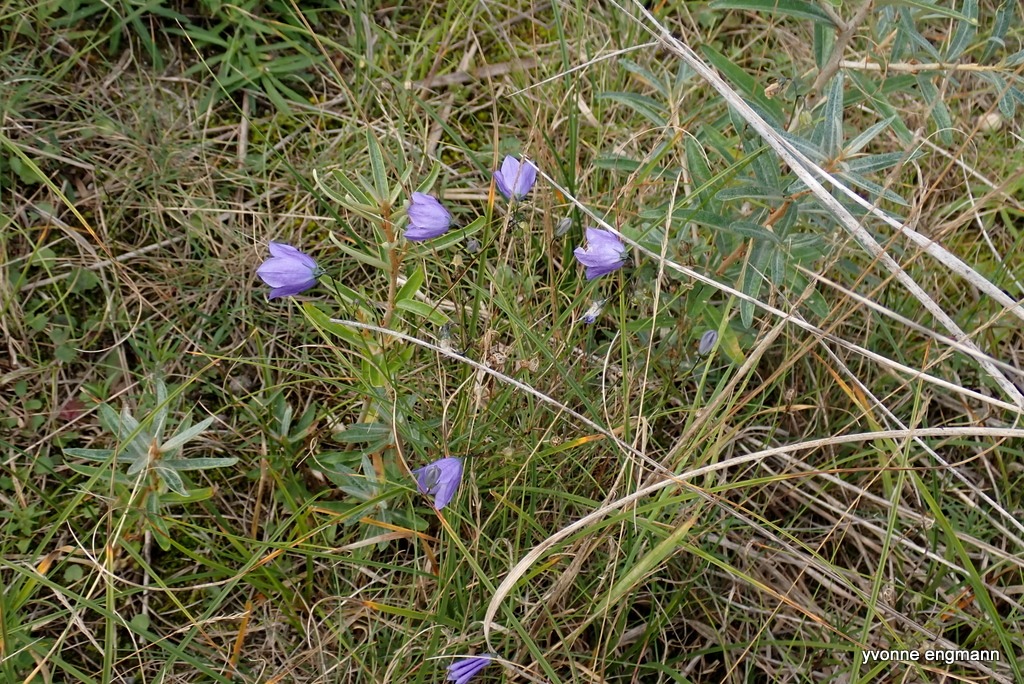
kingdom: Plantae
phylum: Tracheophyta
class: Magnoliopsida
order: Asterales
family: Campanulaceae
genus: Campanula
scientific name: Campanula rotundifolia
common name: Liden klokke
